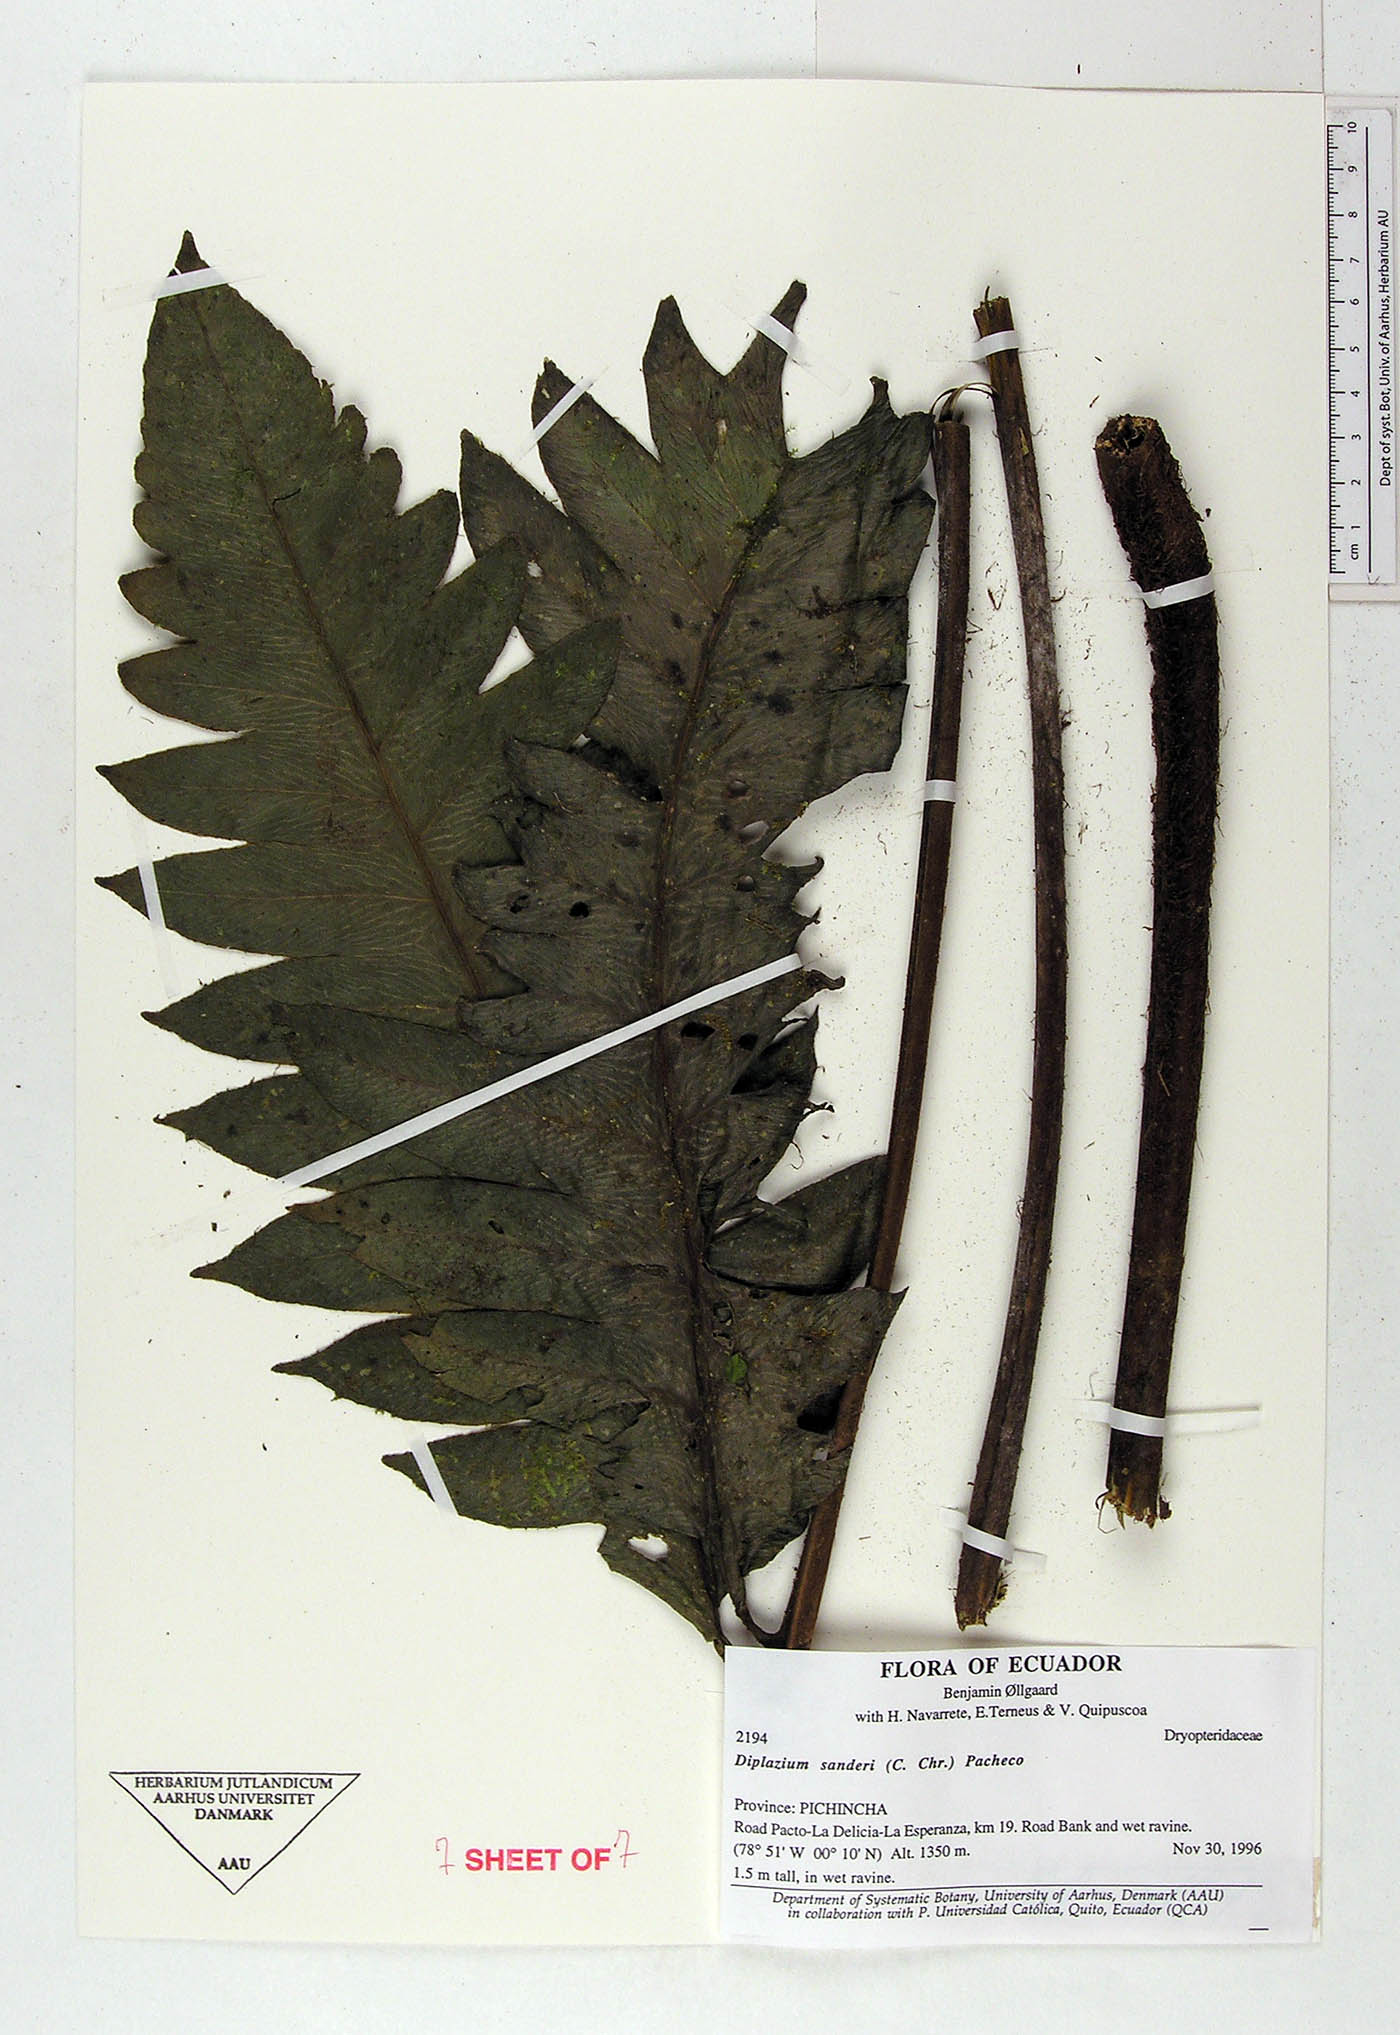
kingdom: Plantae
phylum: Tracheophyta
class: Polypodiopsida
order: Polypodiales
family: Athyriaceae
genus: Diplazium
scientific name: Diplazium sanderi
